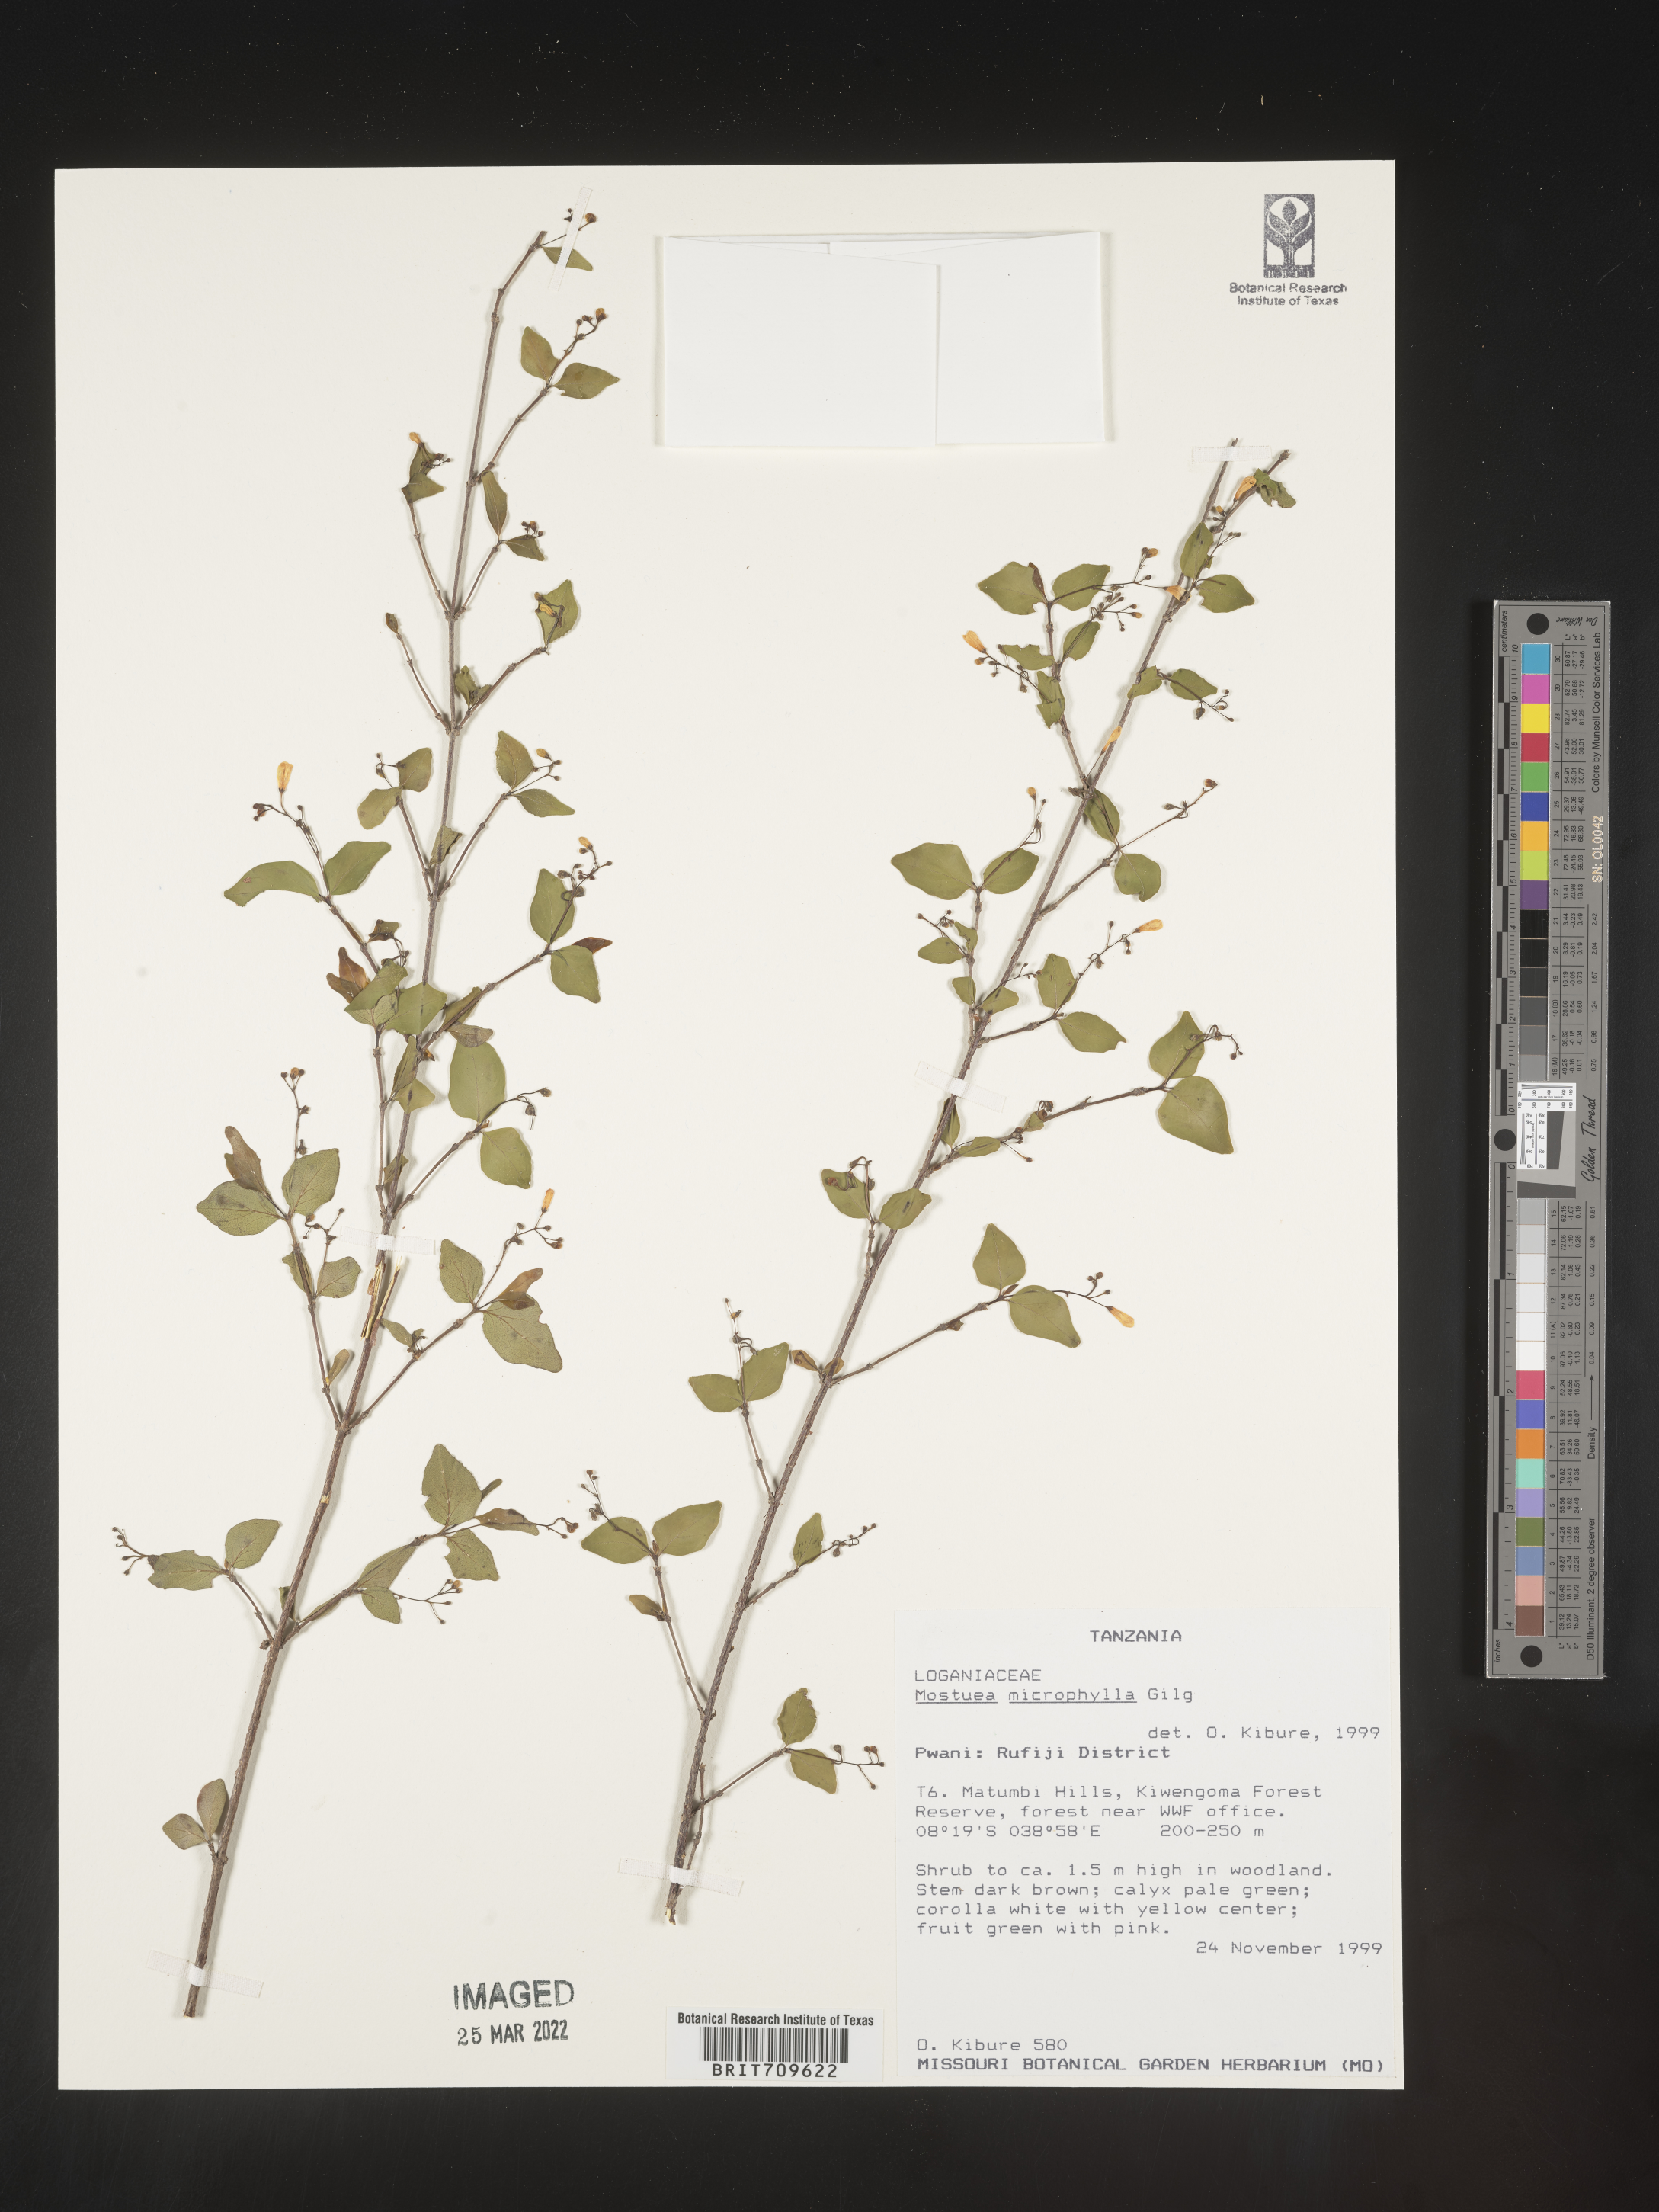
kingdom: Plantae
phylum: Tracheophyta
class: Magnoliopsida
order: Gentianales
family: Gelsemiaceae
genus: Mostuea
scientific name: Mostuea
